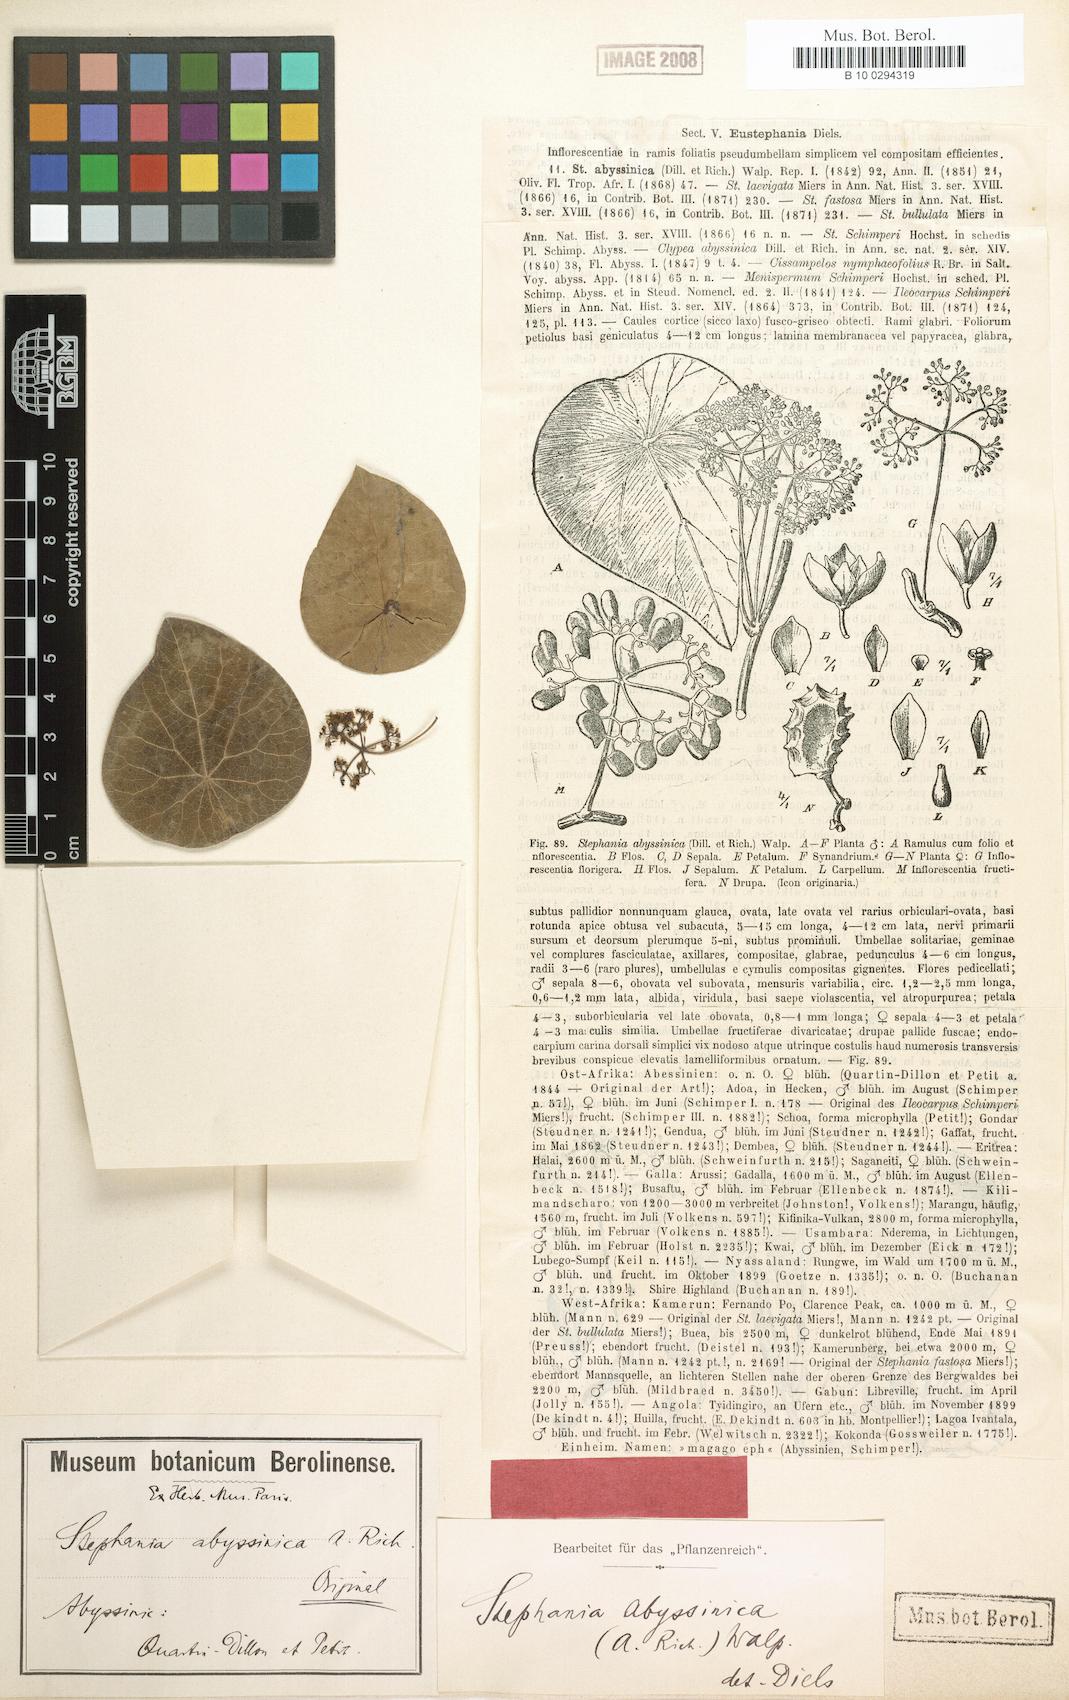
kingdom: Plantae
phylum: Tracheophyta
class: Magnoliopsida
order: Ranunculales
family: Menispermaceae
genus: Stephania
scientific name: Stephania abyssinica
